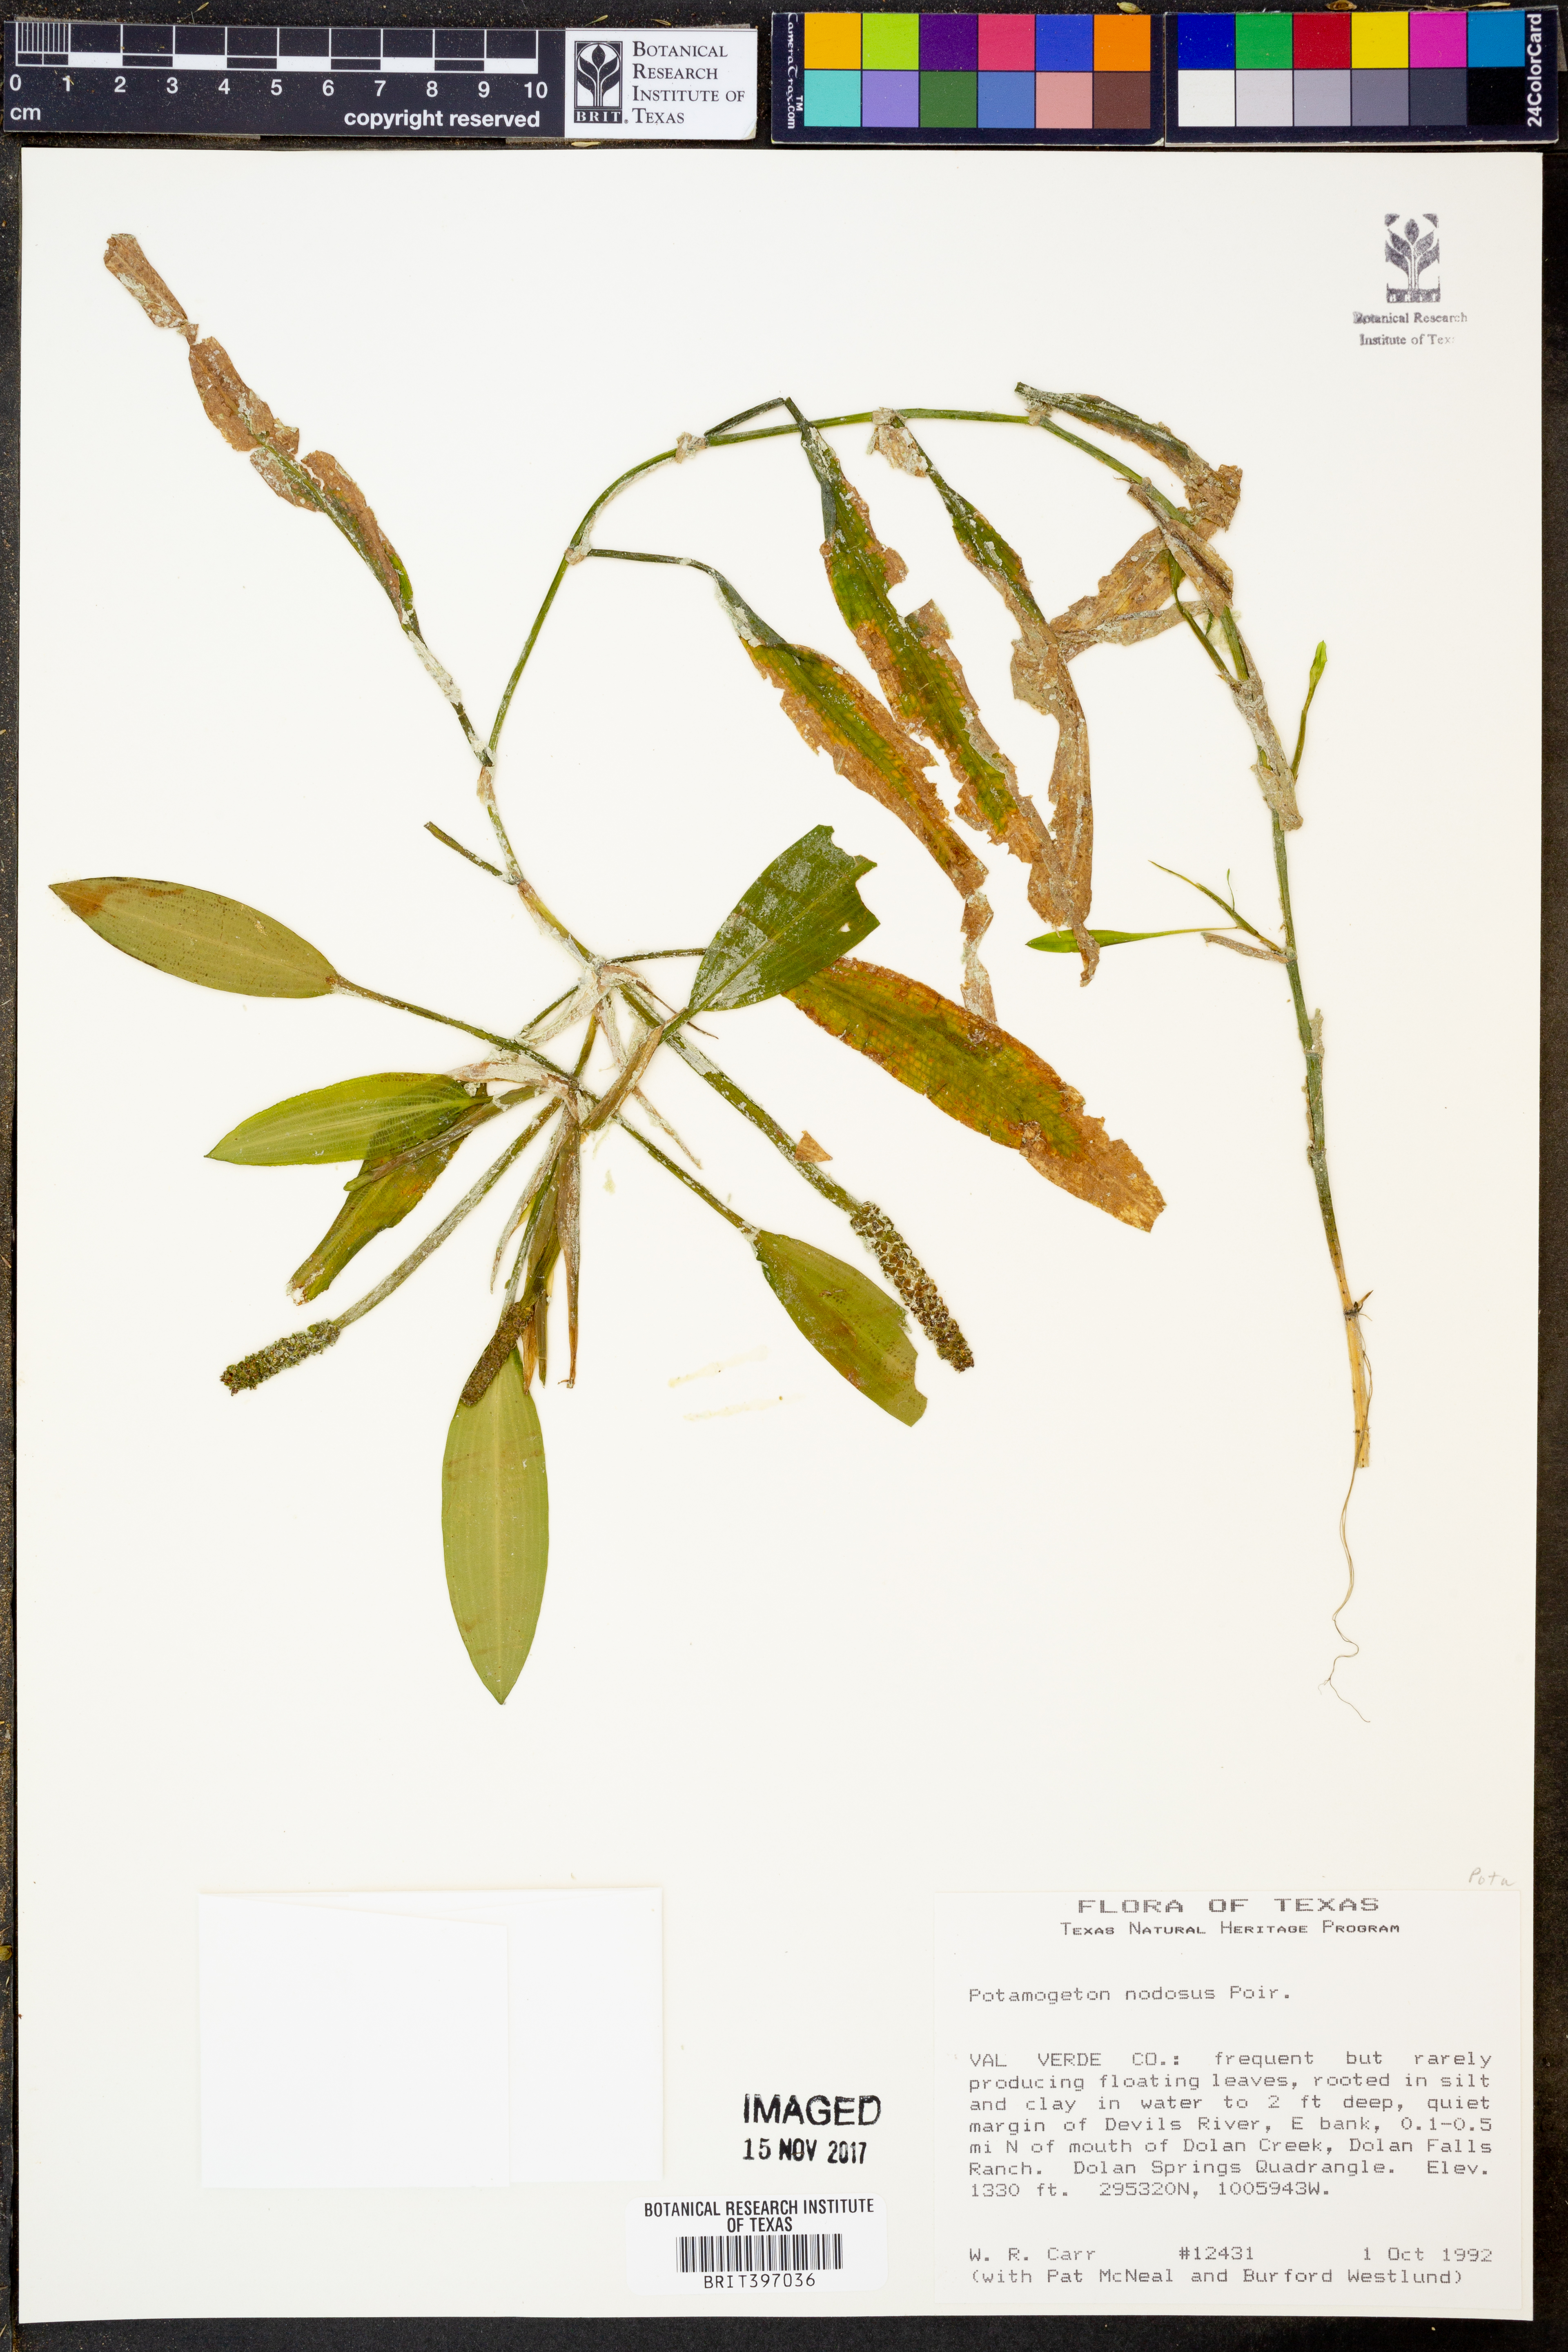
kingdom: Plantae
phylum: Tracheophyta
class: Liliopsida
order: Alismatales
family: Potamogetonaceae
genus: Potamogeton
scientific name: Potamogeton nodosus
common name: Loddon pondweed
